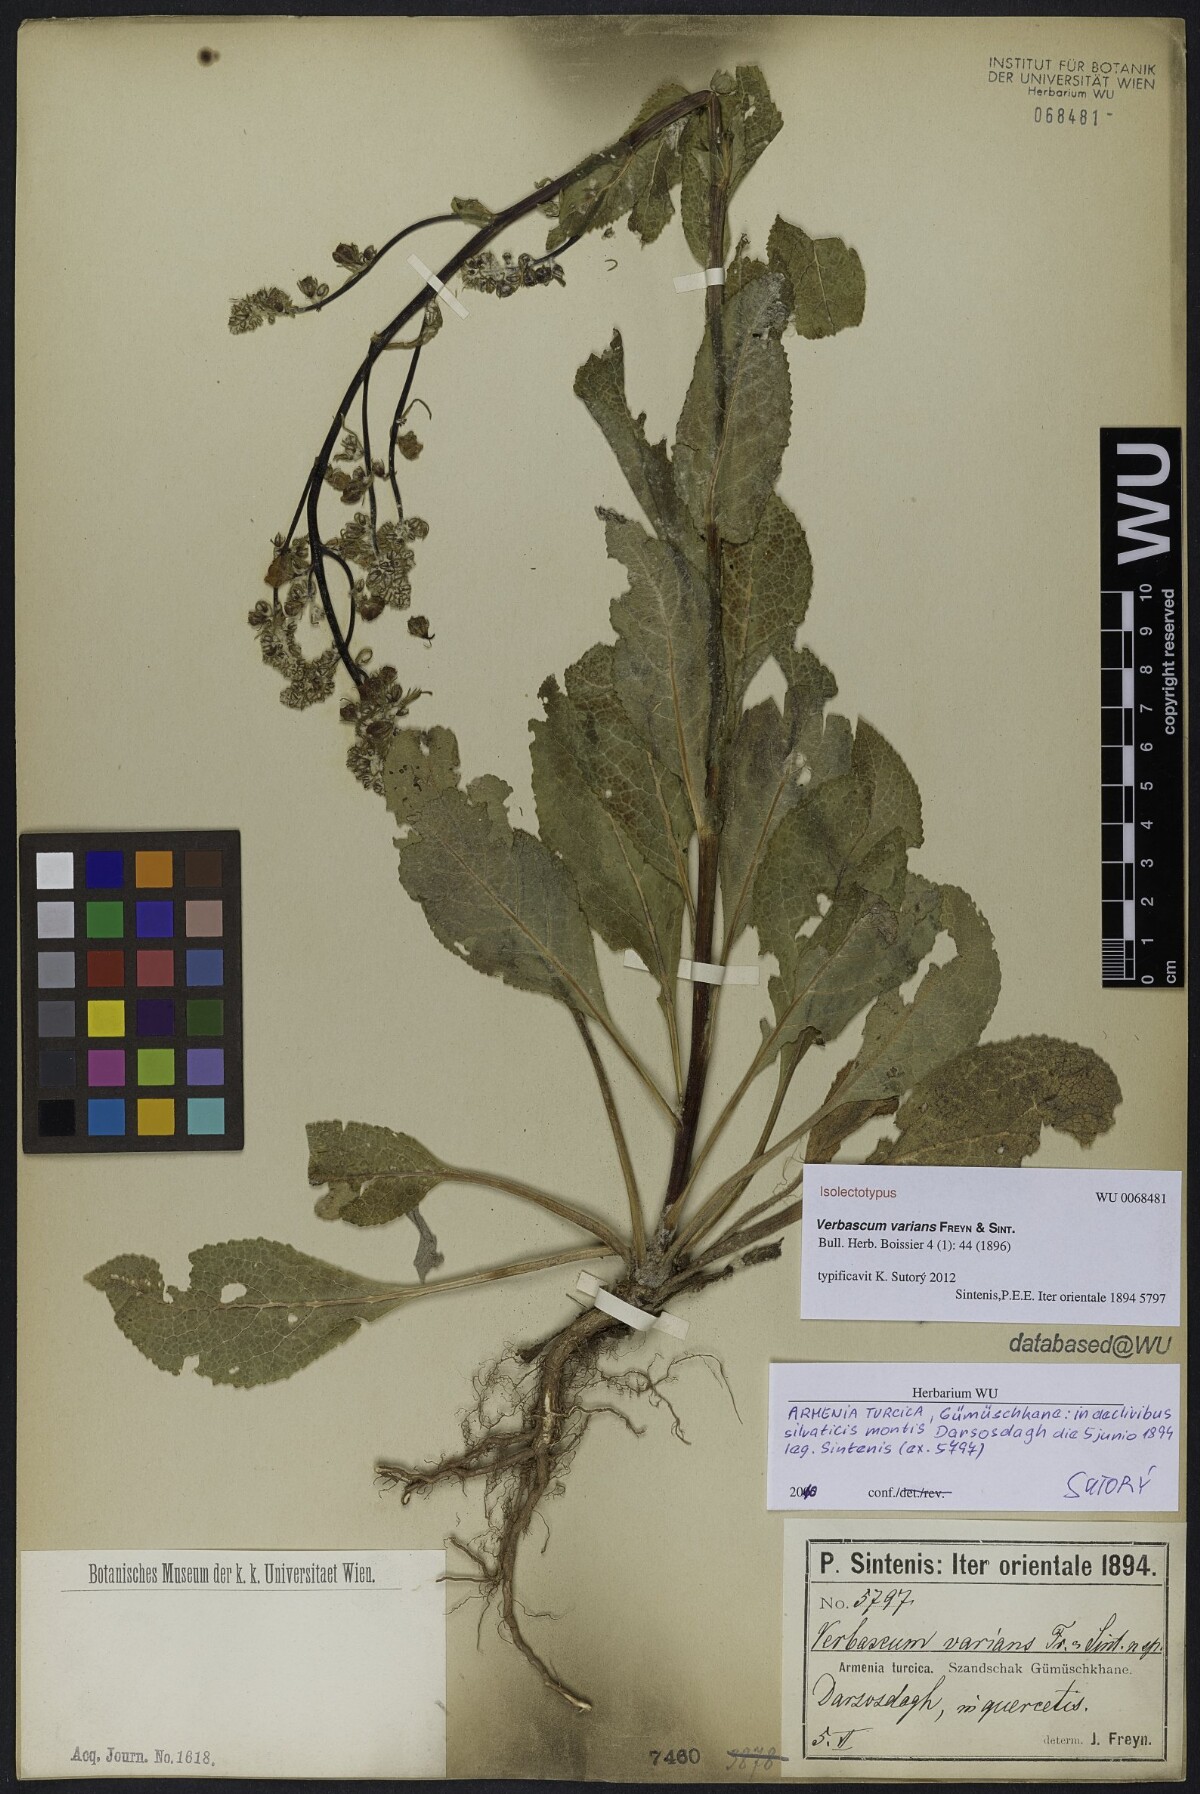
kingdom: Plantae
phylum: Tracheophyta
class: Magnoliopsida
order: Lamiales
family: Scrophulariaceae
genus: Verbascum
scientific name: Verbascum varians
